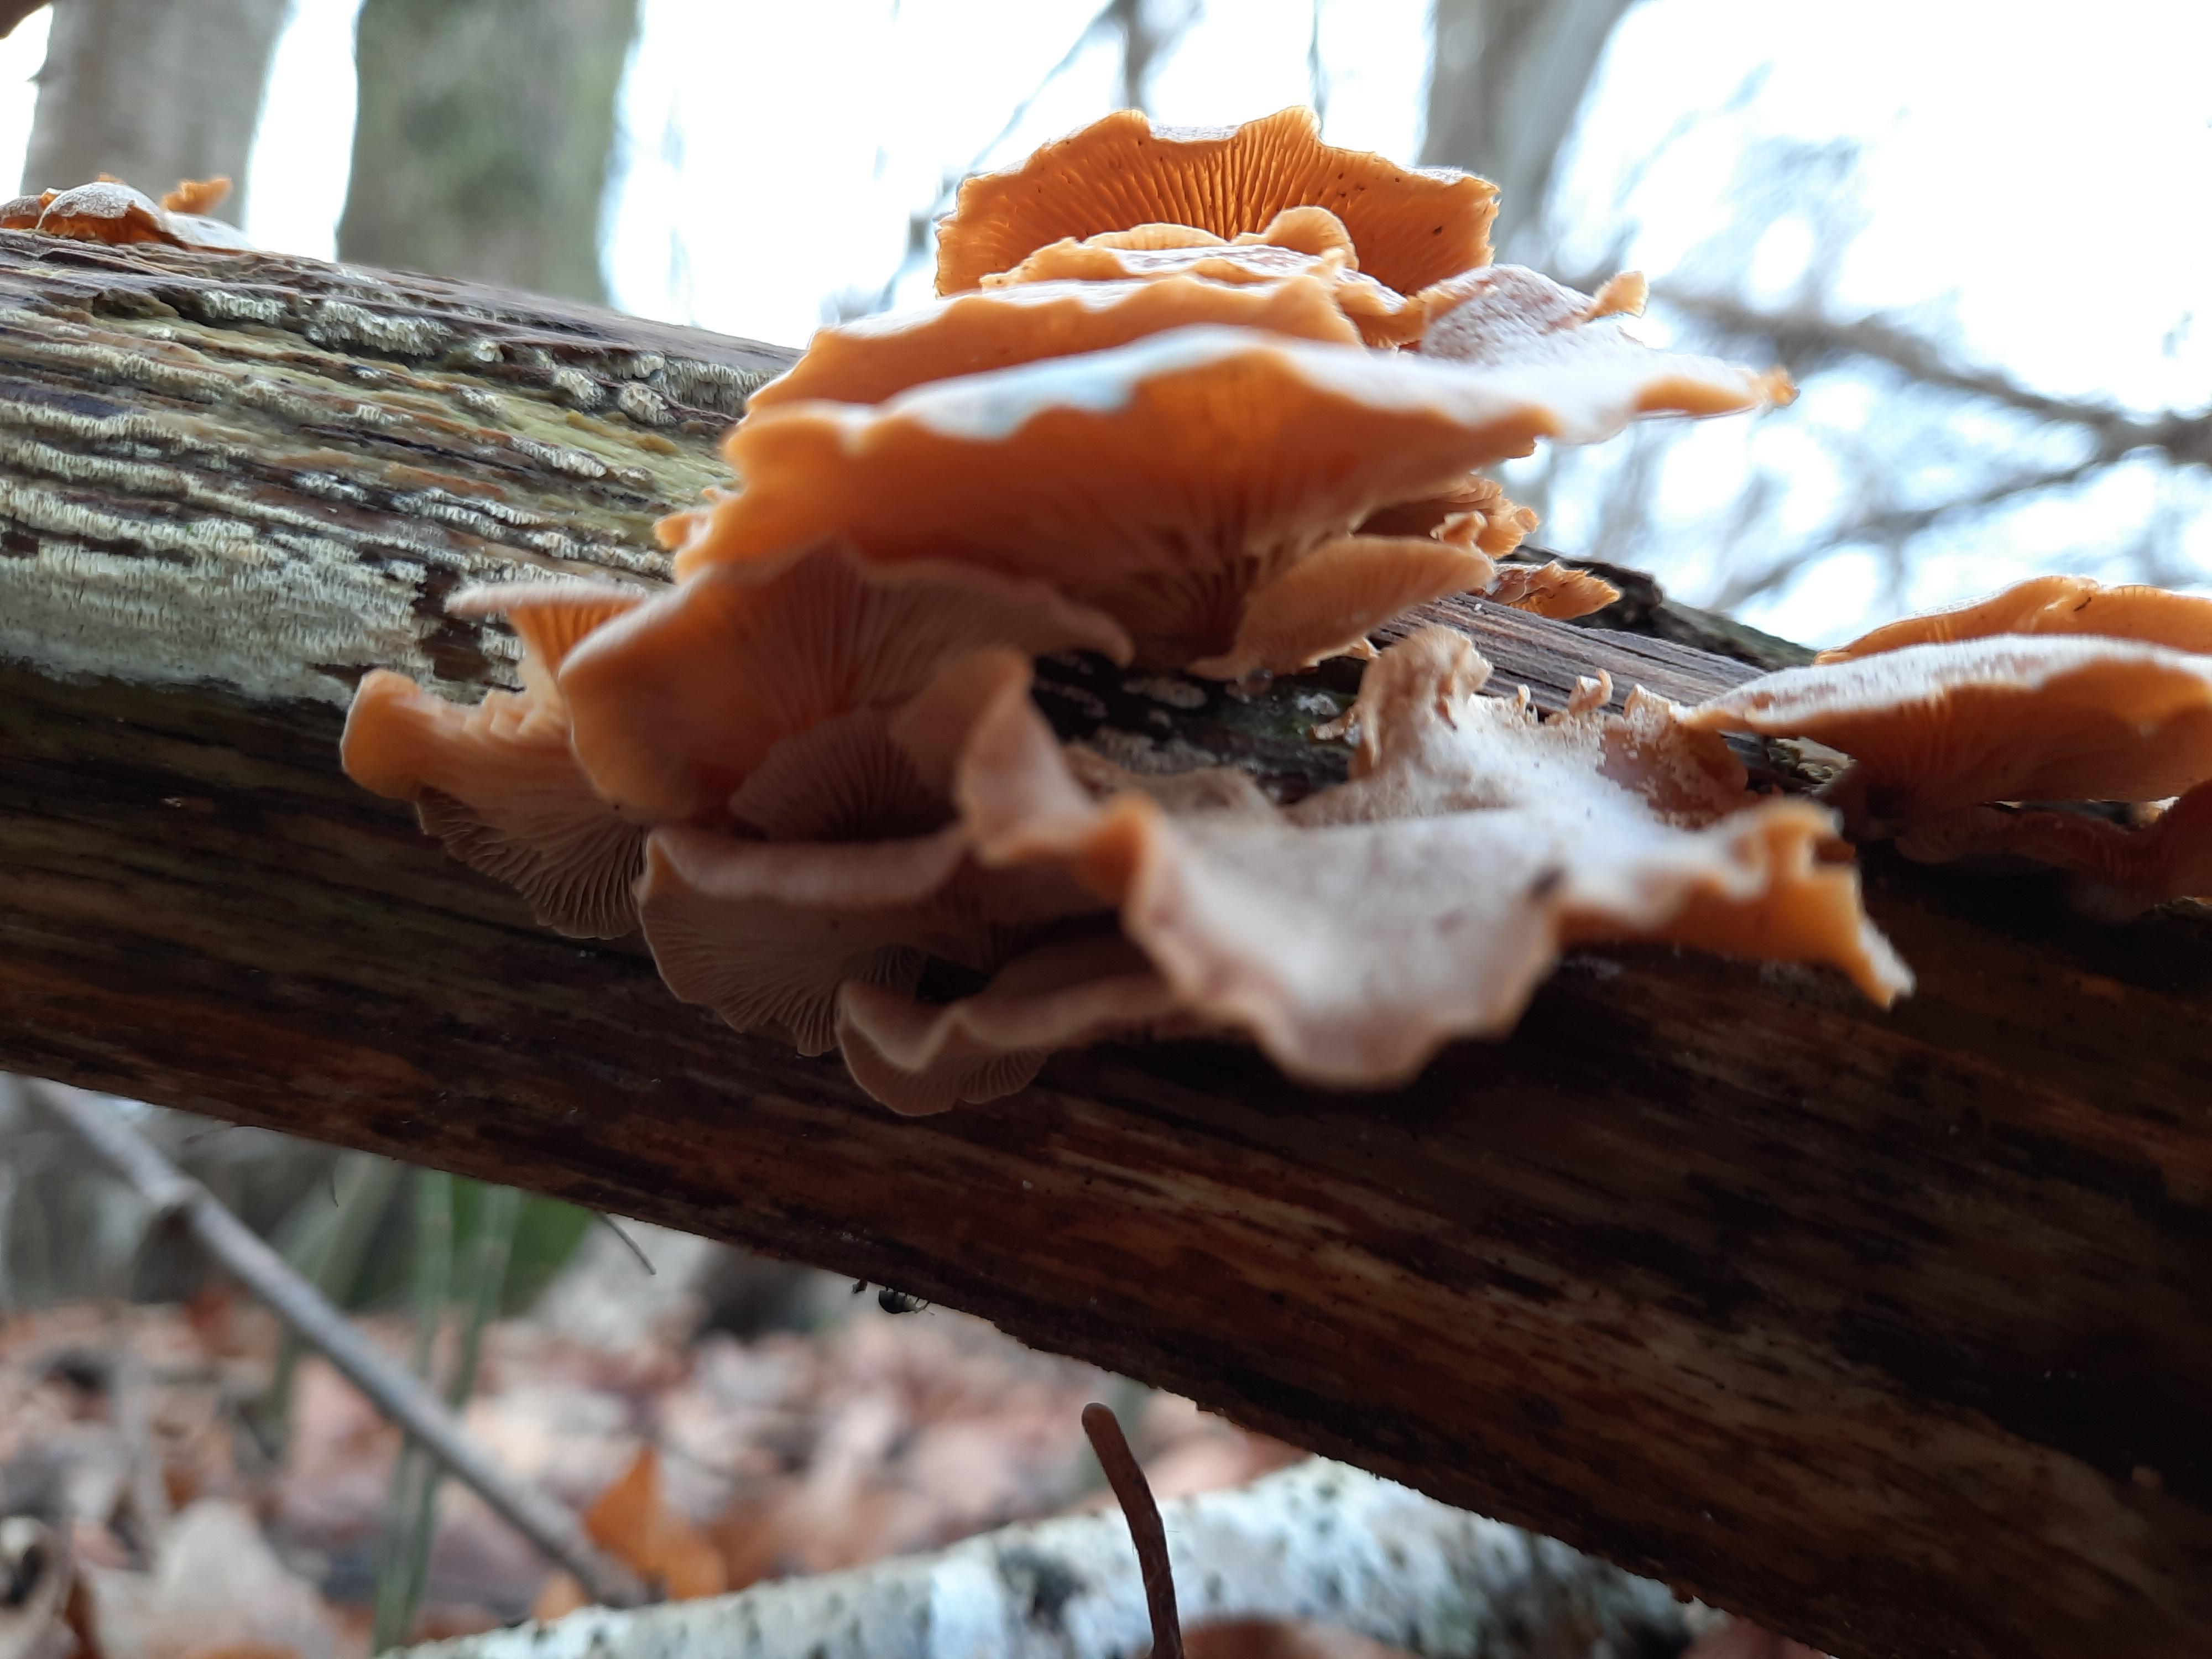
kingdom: Fungi
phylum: Basidiomycota
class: Agaricomycetes
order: Agaricales
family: Mycenaceae
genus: Panellus
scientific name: Panellus stipticus
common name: kliddet epaulethat
